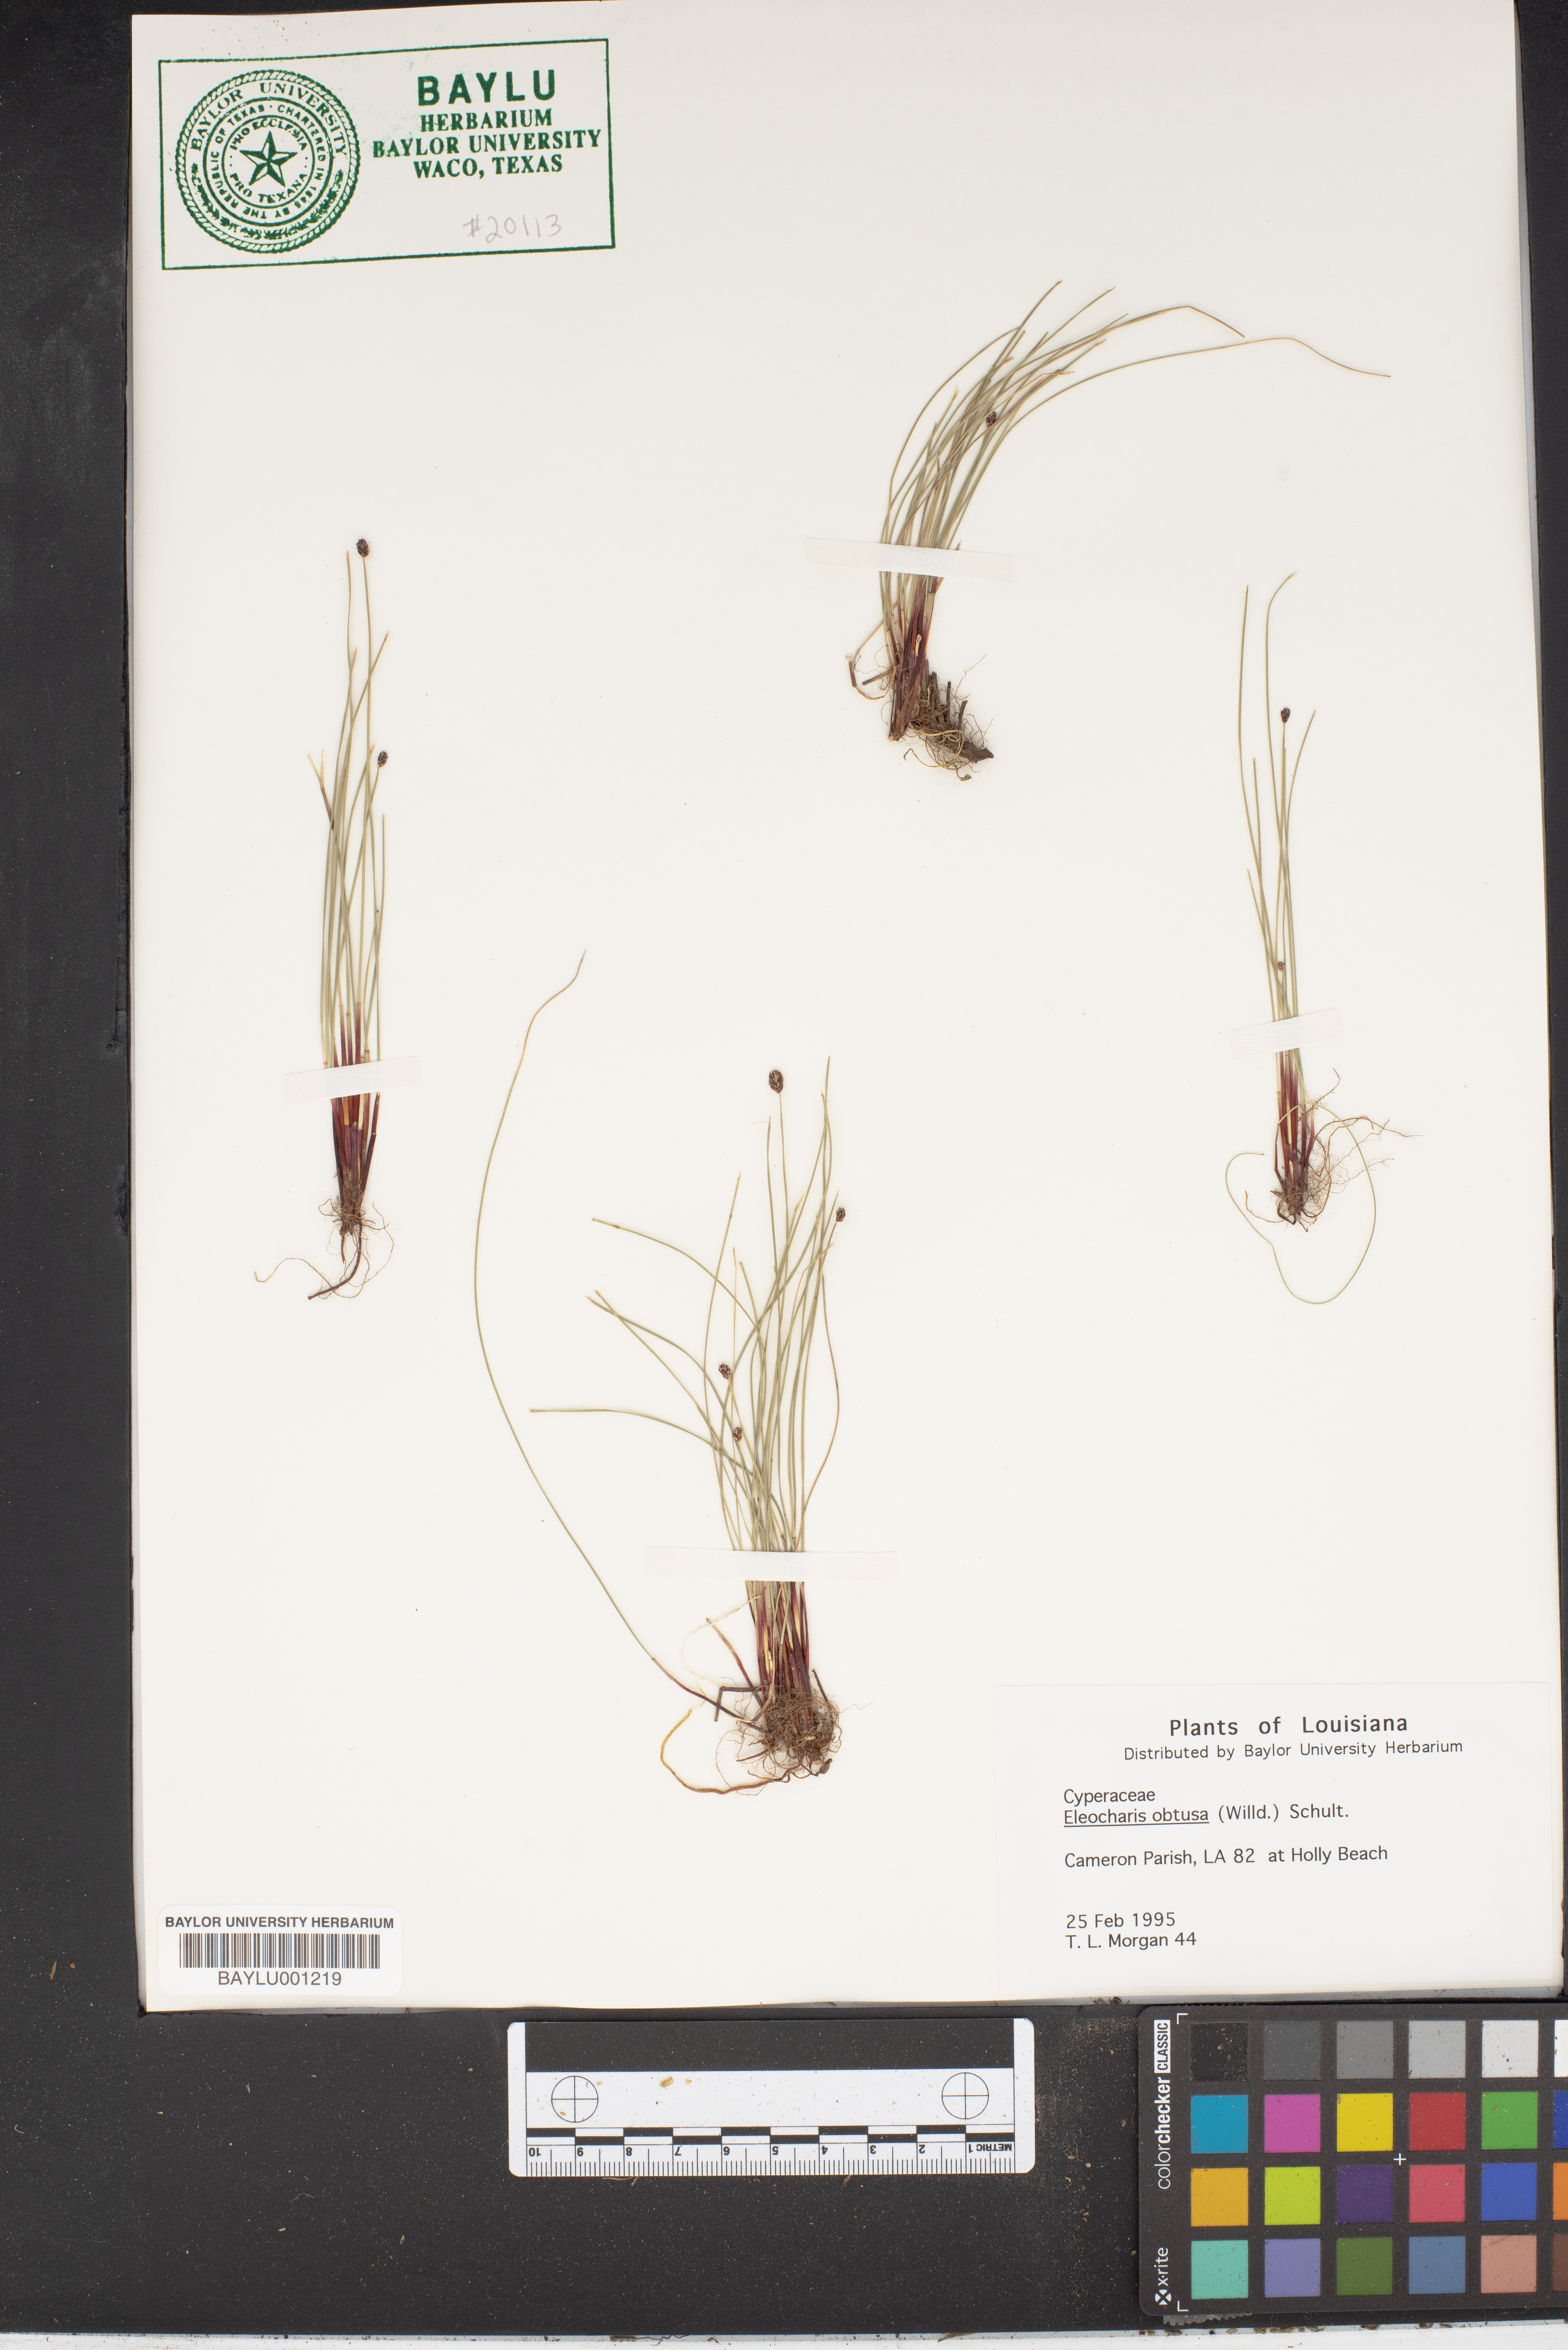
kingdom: Plantae
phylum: Tracheophyta
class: Liliopsida
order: Poales
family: Cyperaceae
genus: Eleocharis
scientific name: Eleocharis obtusa
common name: Blunt spikerush
